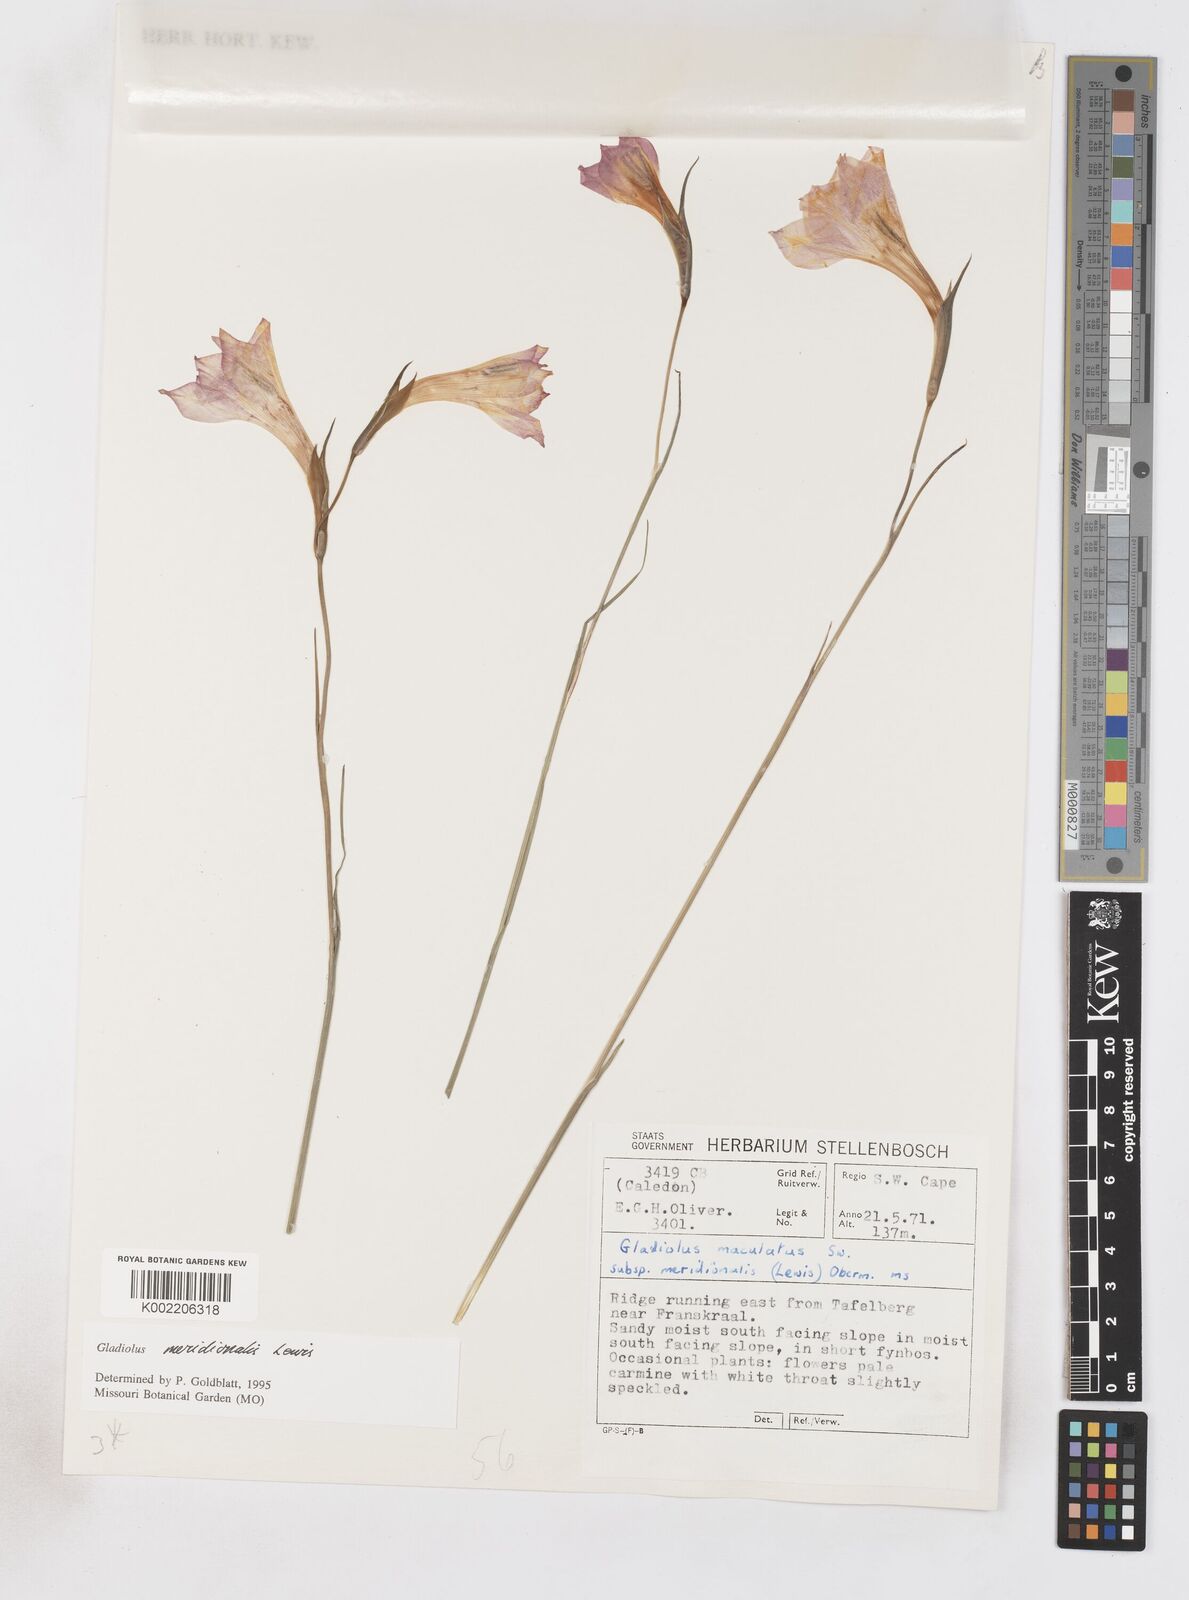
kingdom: Plantae
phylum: Tracheophyta
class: Liliopsida
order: Asparagales
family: Iridaceae
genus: Gladiolus
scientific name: Gladiolus meridionalis
